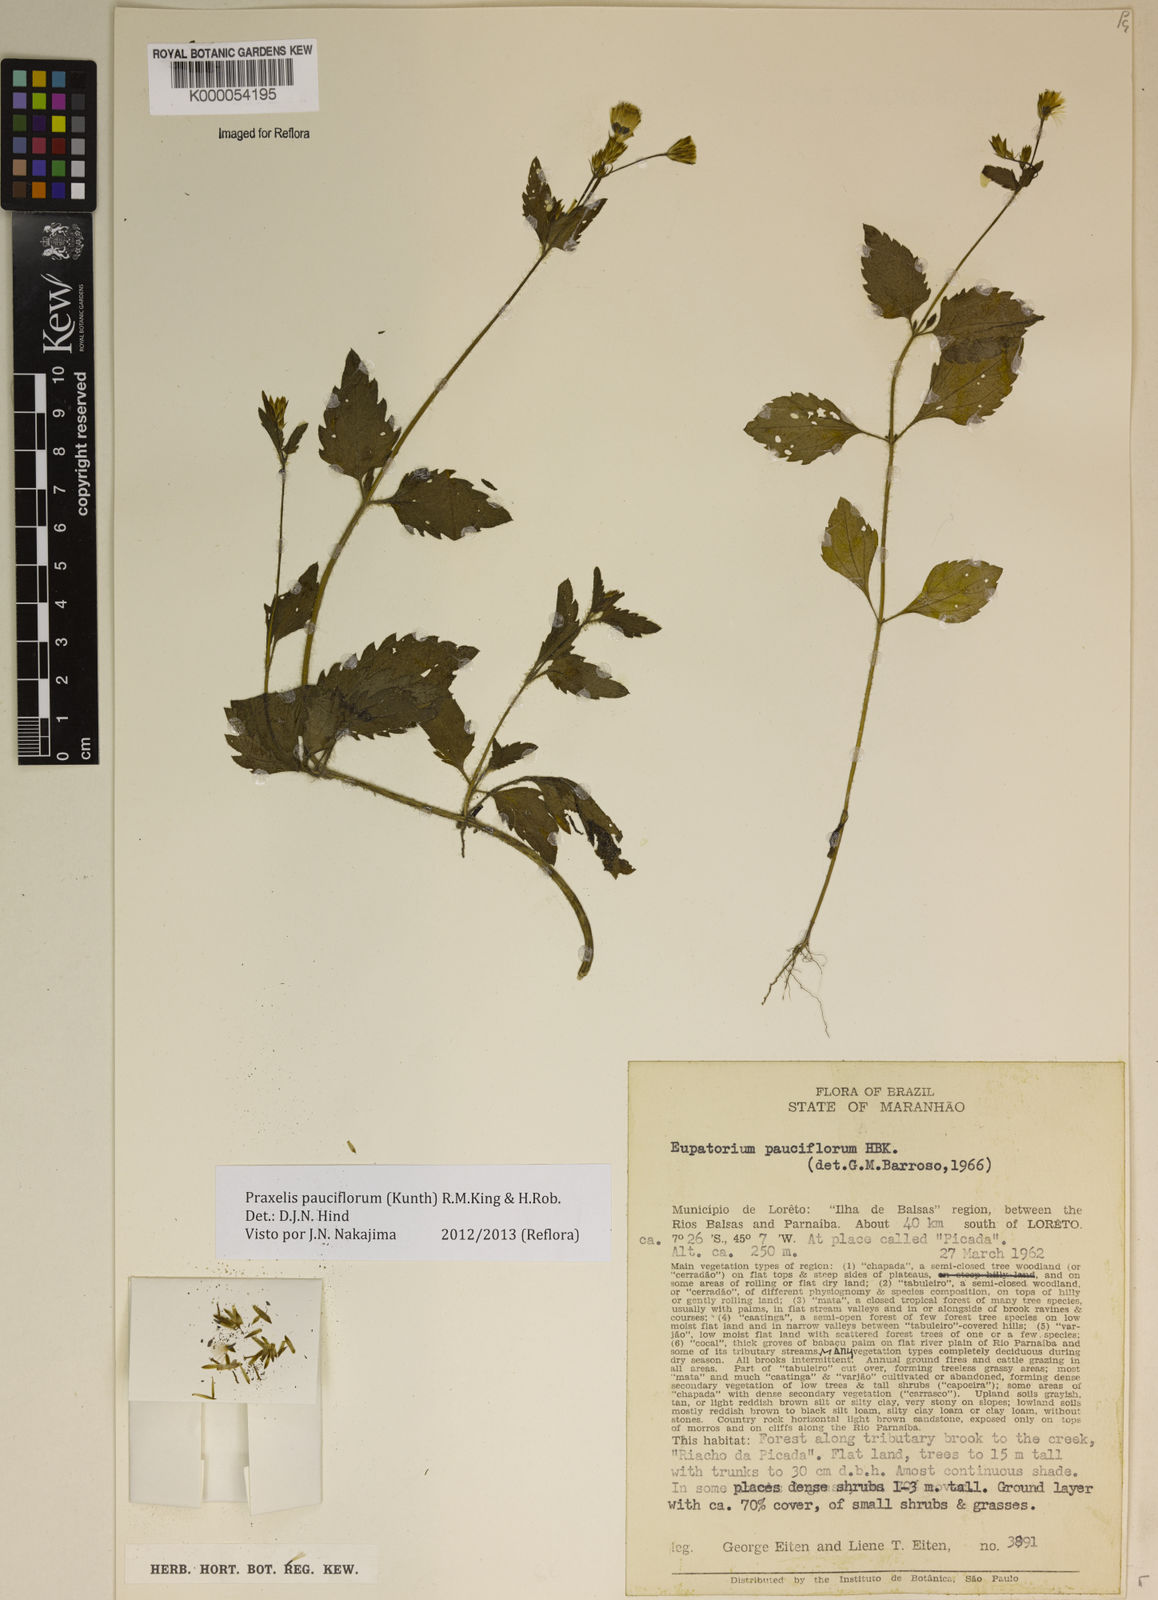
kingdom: Plantae
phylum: Tracheophyta
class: Magnoliopsida
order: Asterales
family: Asteraceae
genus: Praxelis
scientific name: Praxelis diffusa
